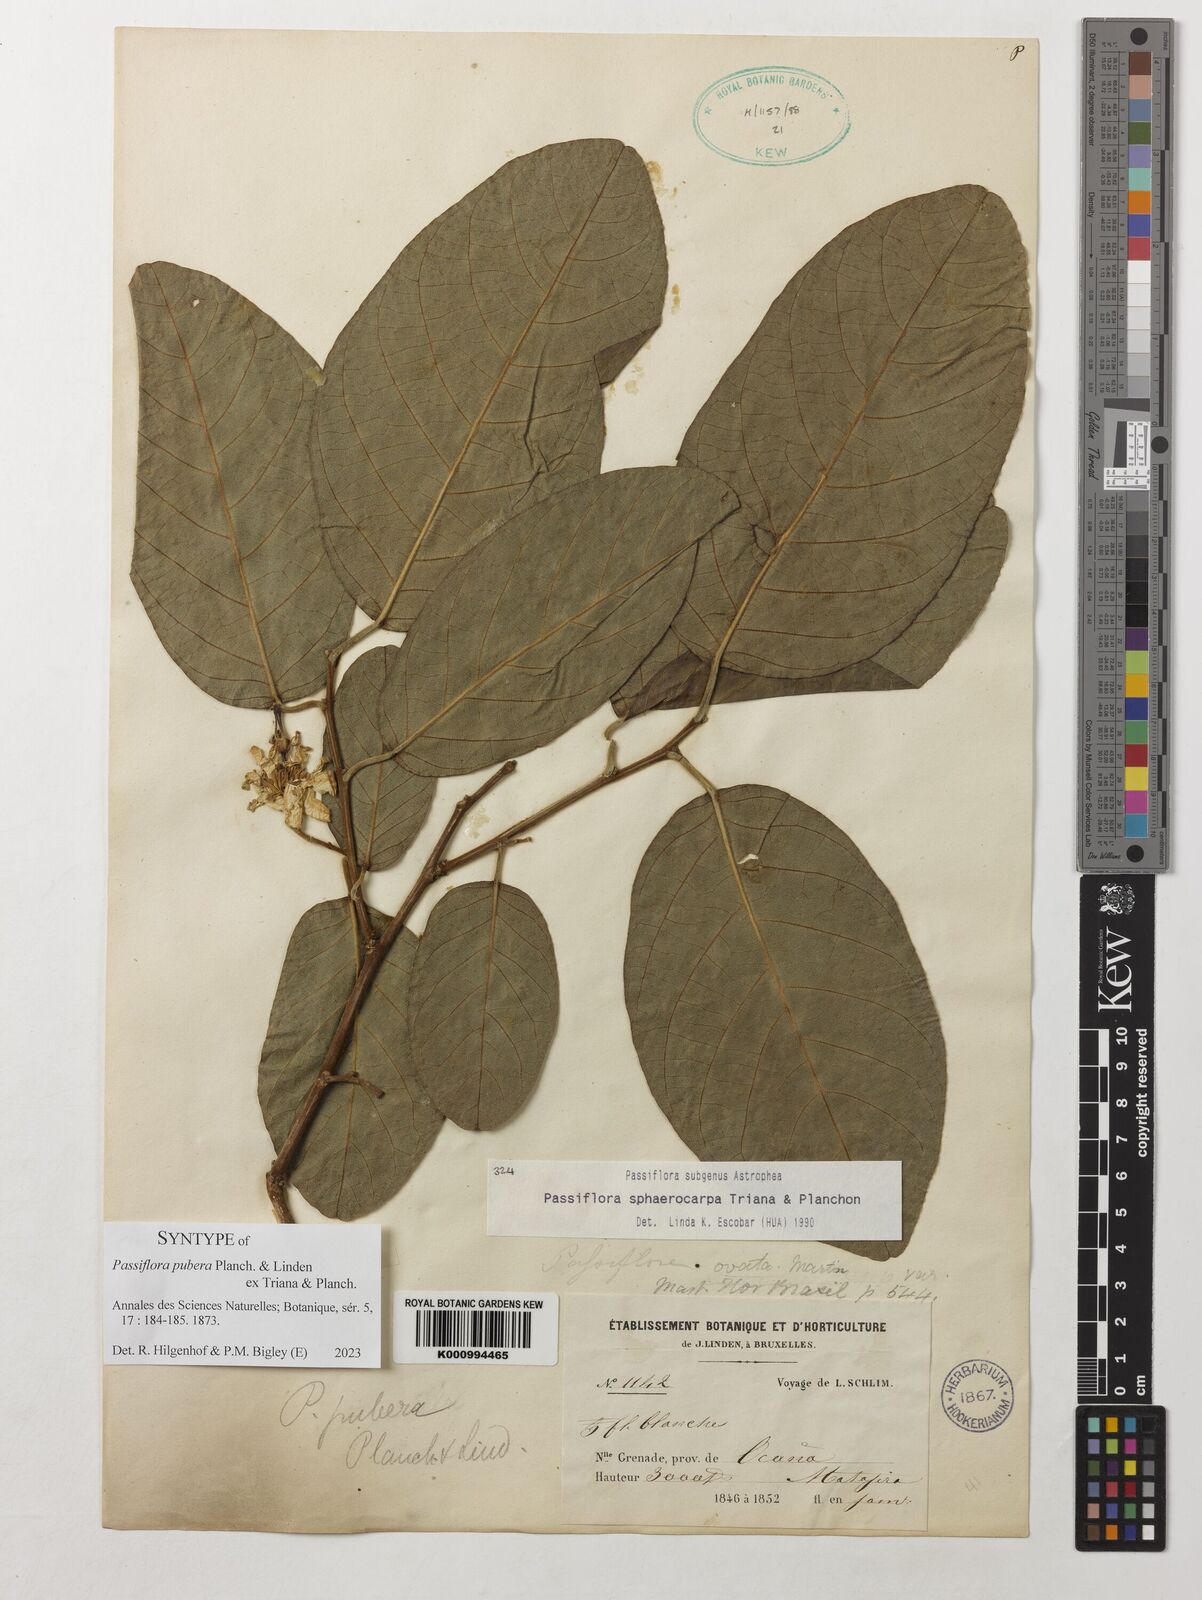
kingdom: Plantae
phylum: Tracheophyta
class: Magnoliopsida
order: Malpighiales
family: Passifloraceae
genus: Passiflora
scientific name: Passiflora
